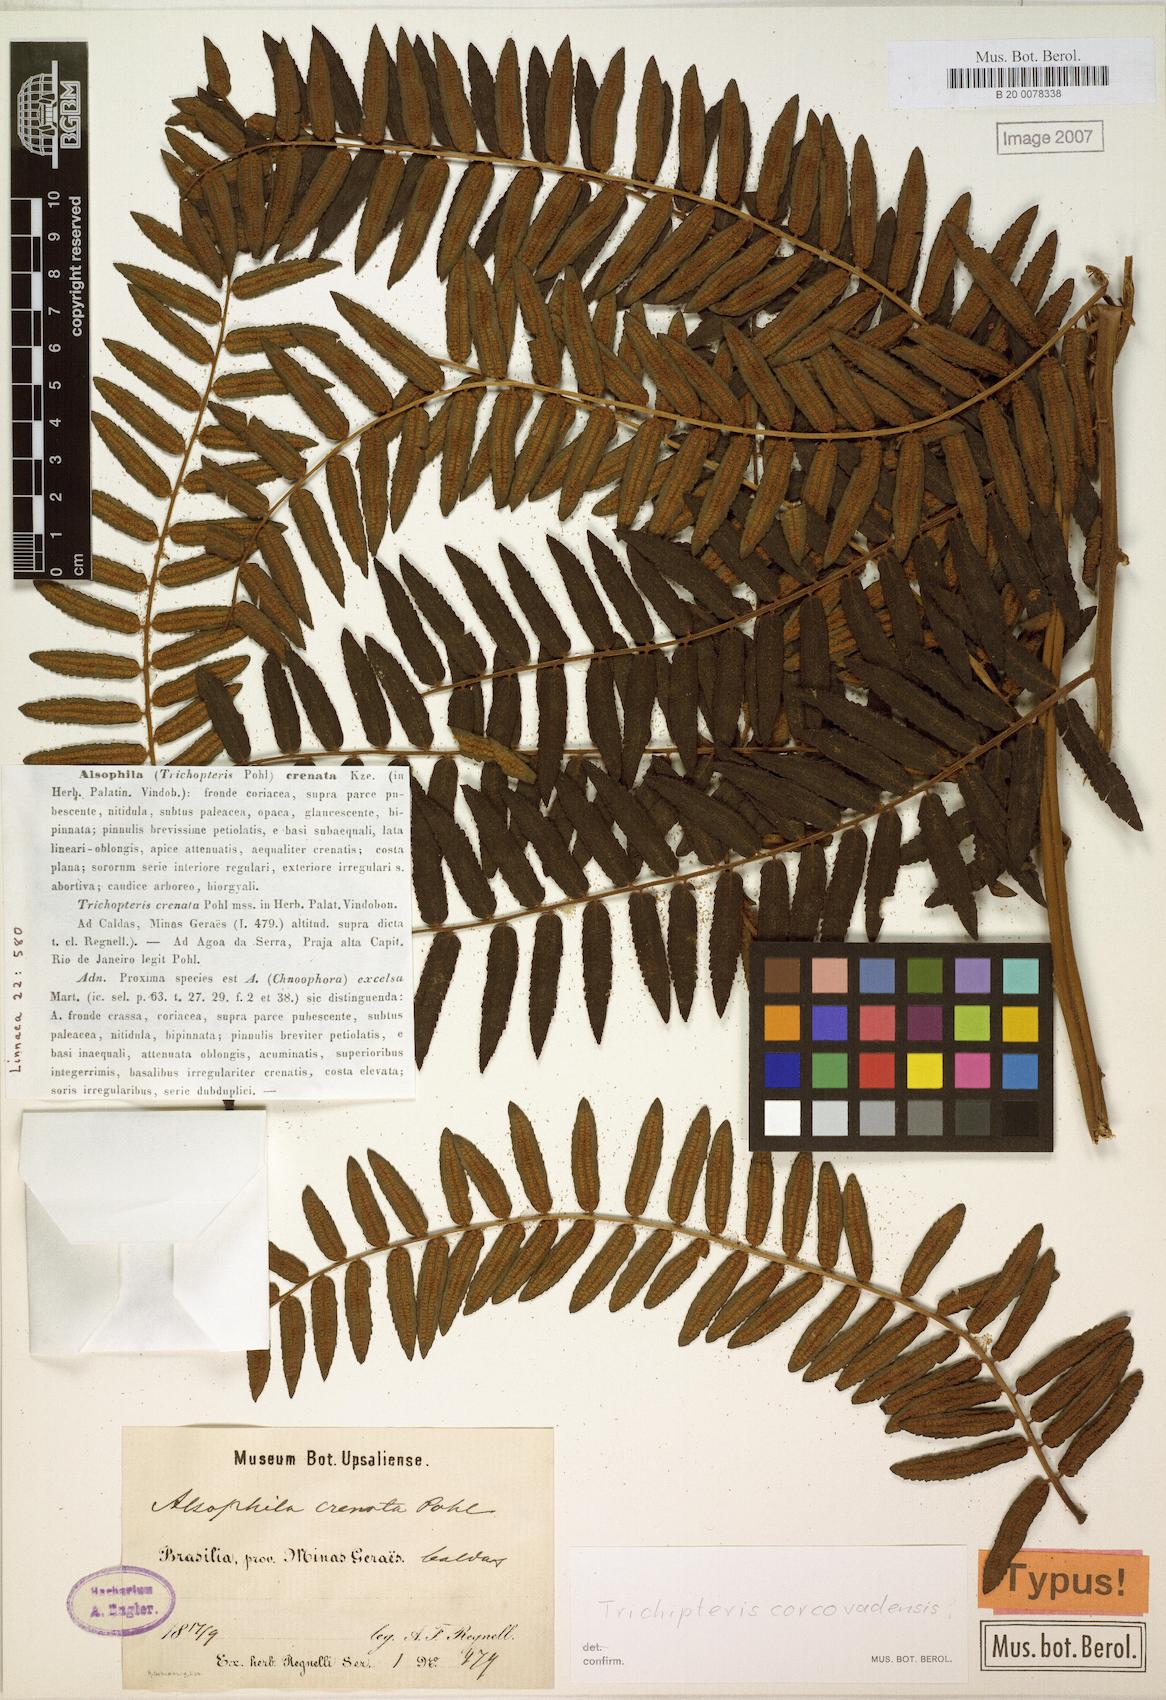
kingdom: Plantae
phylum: Tracheophyta
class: Polypodiopsida
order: Cyatheales
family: Cyatheaceae
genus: Cyathea
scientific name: Cyathea corcovadensis
